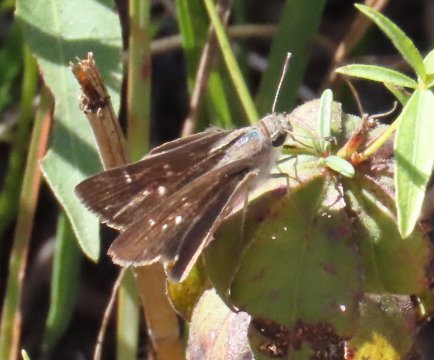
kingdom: Animalia
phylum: Arthropoda
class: Insecta
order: Lepidoptera
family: Hesperiidae
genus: Lerodea
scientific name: Lerodea eufala
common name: Eufala Skipper
